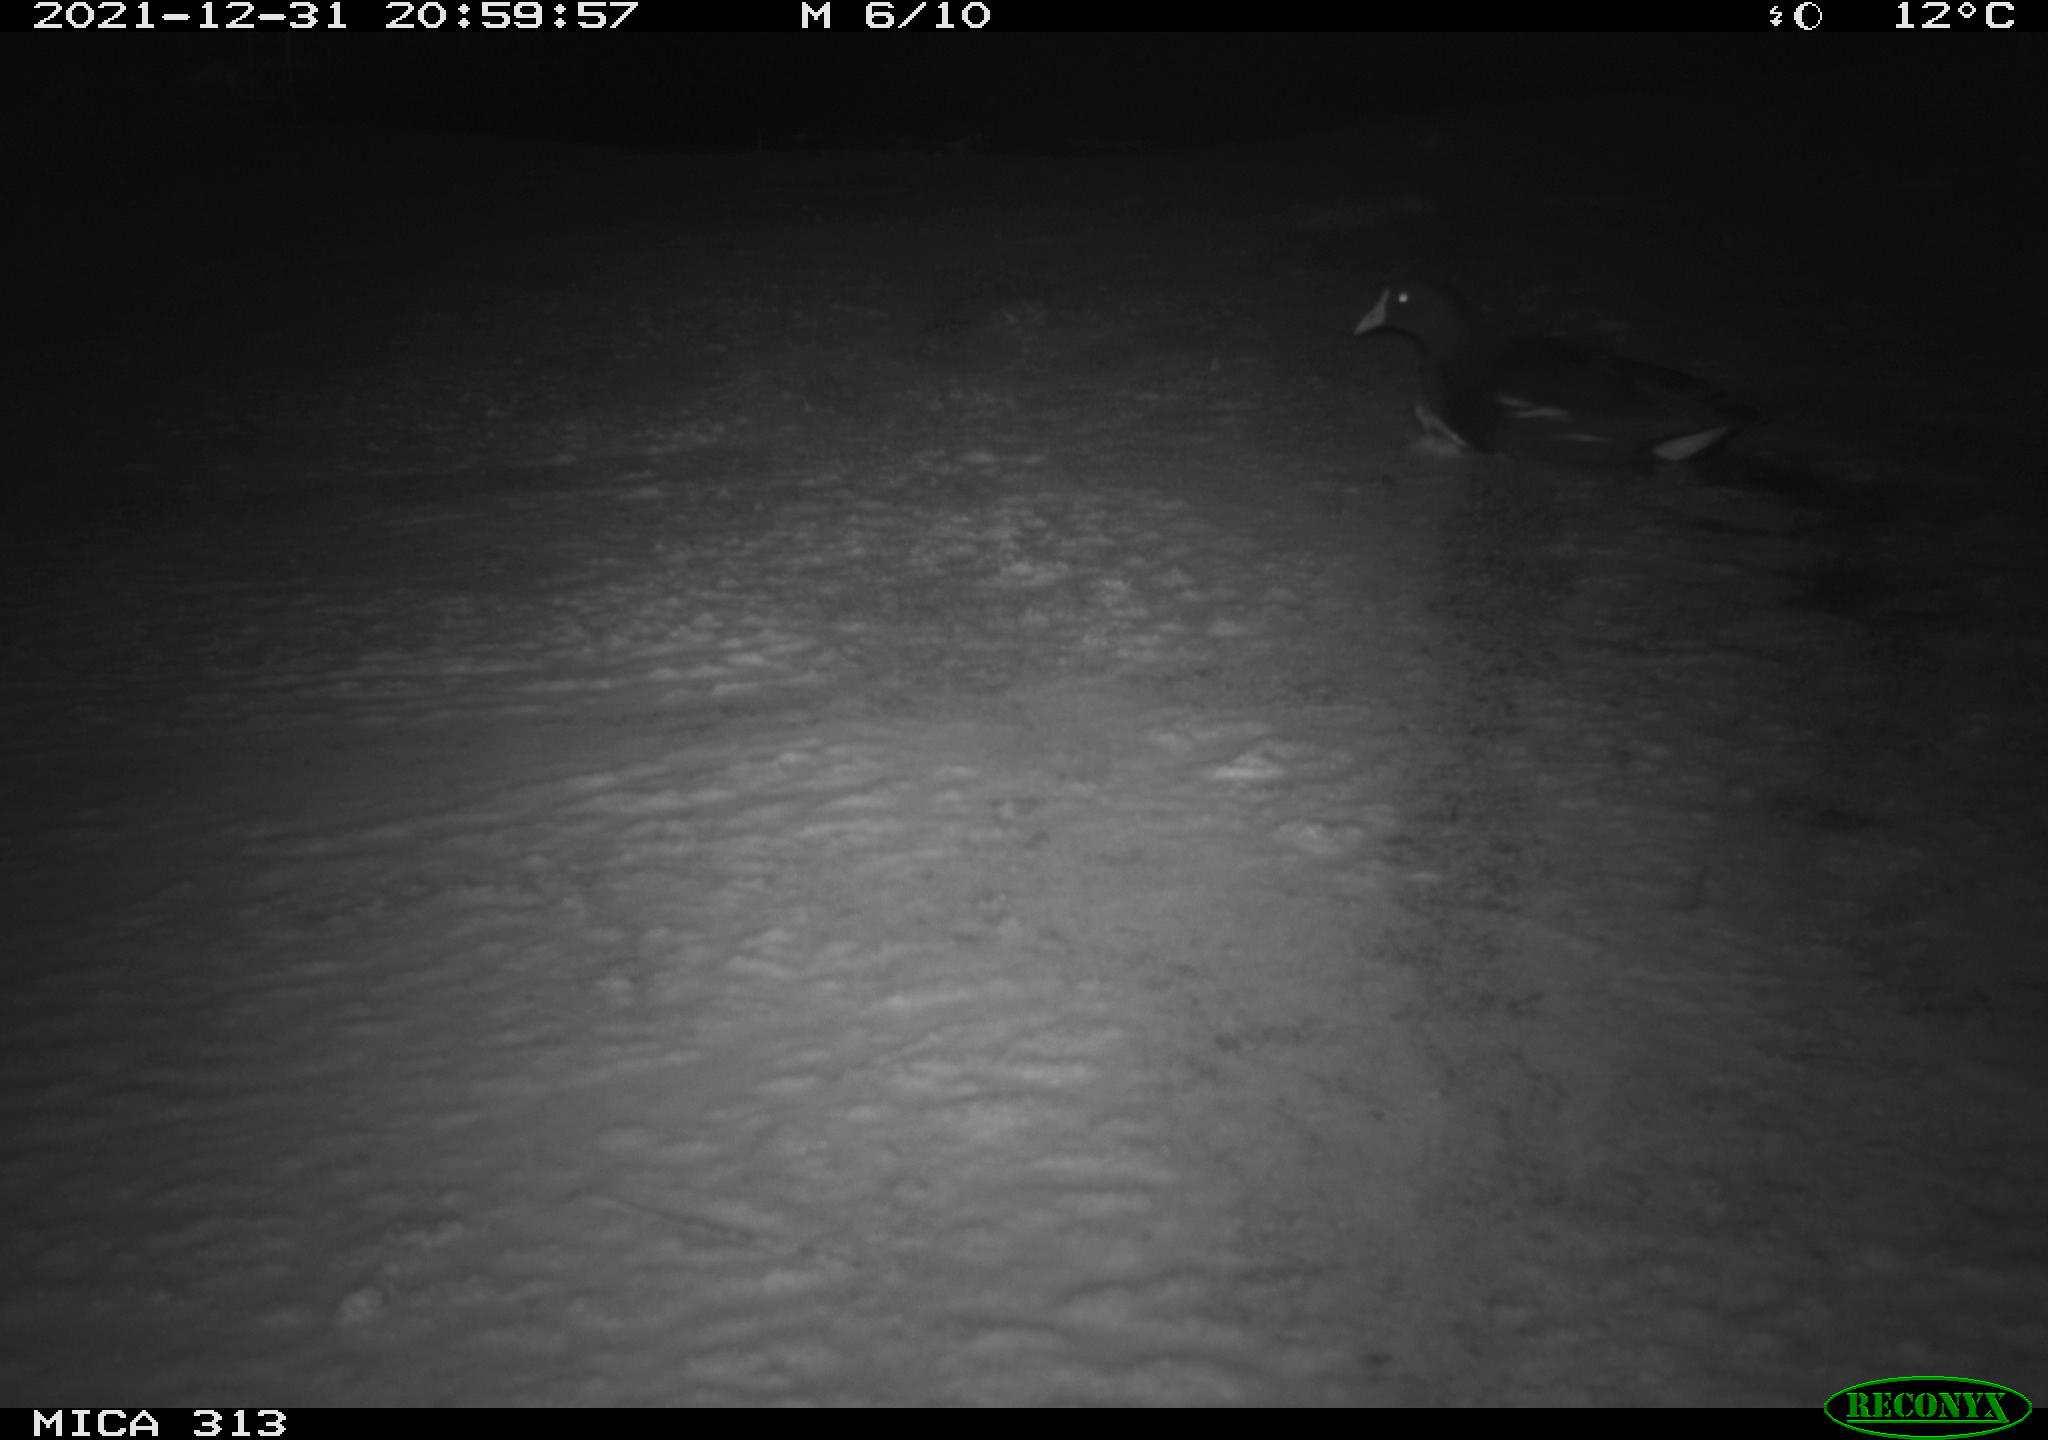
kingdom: Animalia
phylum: Chordata
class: Aves
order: Gruiformes
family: Rallidae
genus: Gallinula
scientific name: Gallinula chloropus
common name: Common moorhen
